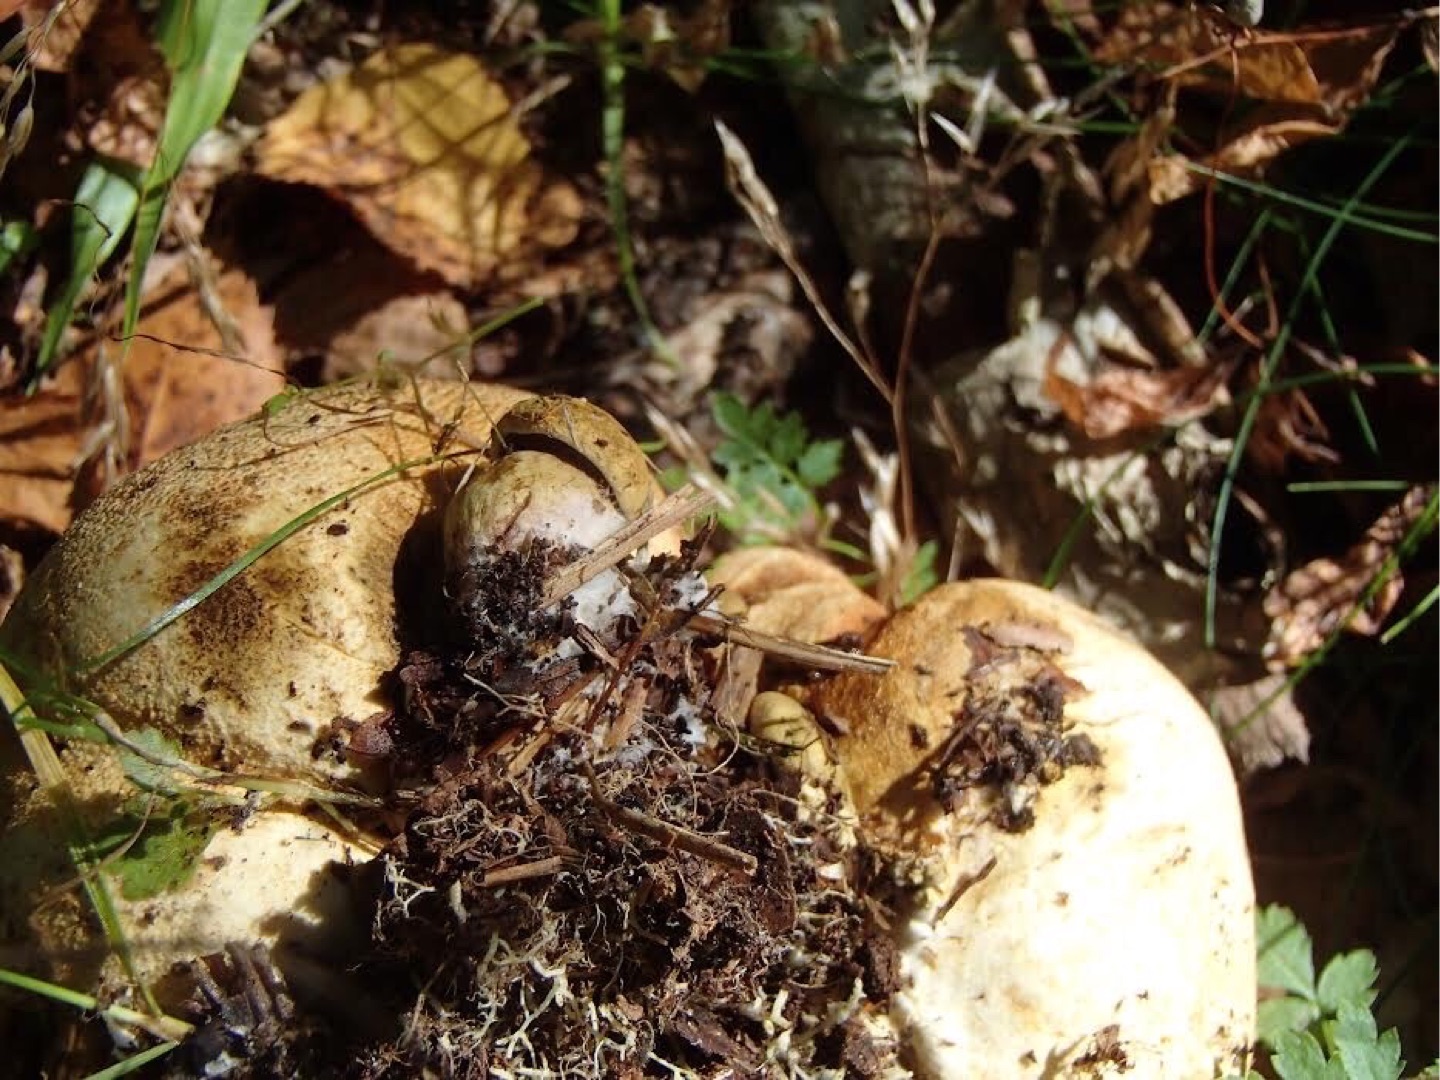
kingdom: Fungi
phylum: Basidiomycota
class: Agaricomycetes
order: Boletales
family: Boletaceae
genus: Pseudoboletus
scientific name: Pseudoboletus parasiticus
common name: Snyltende rørhat
